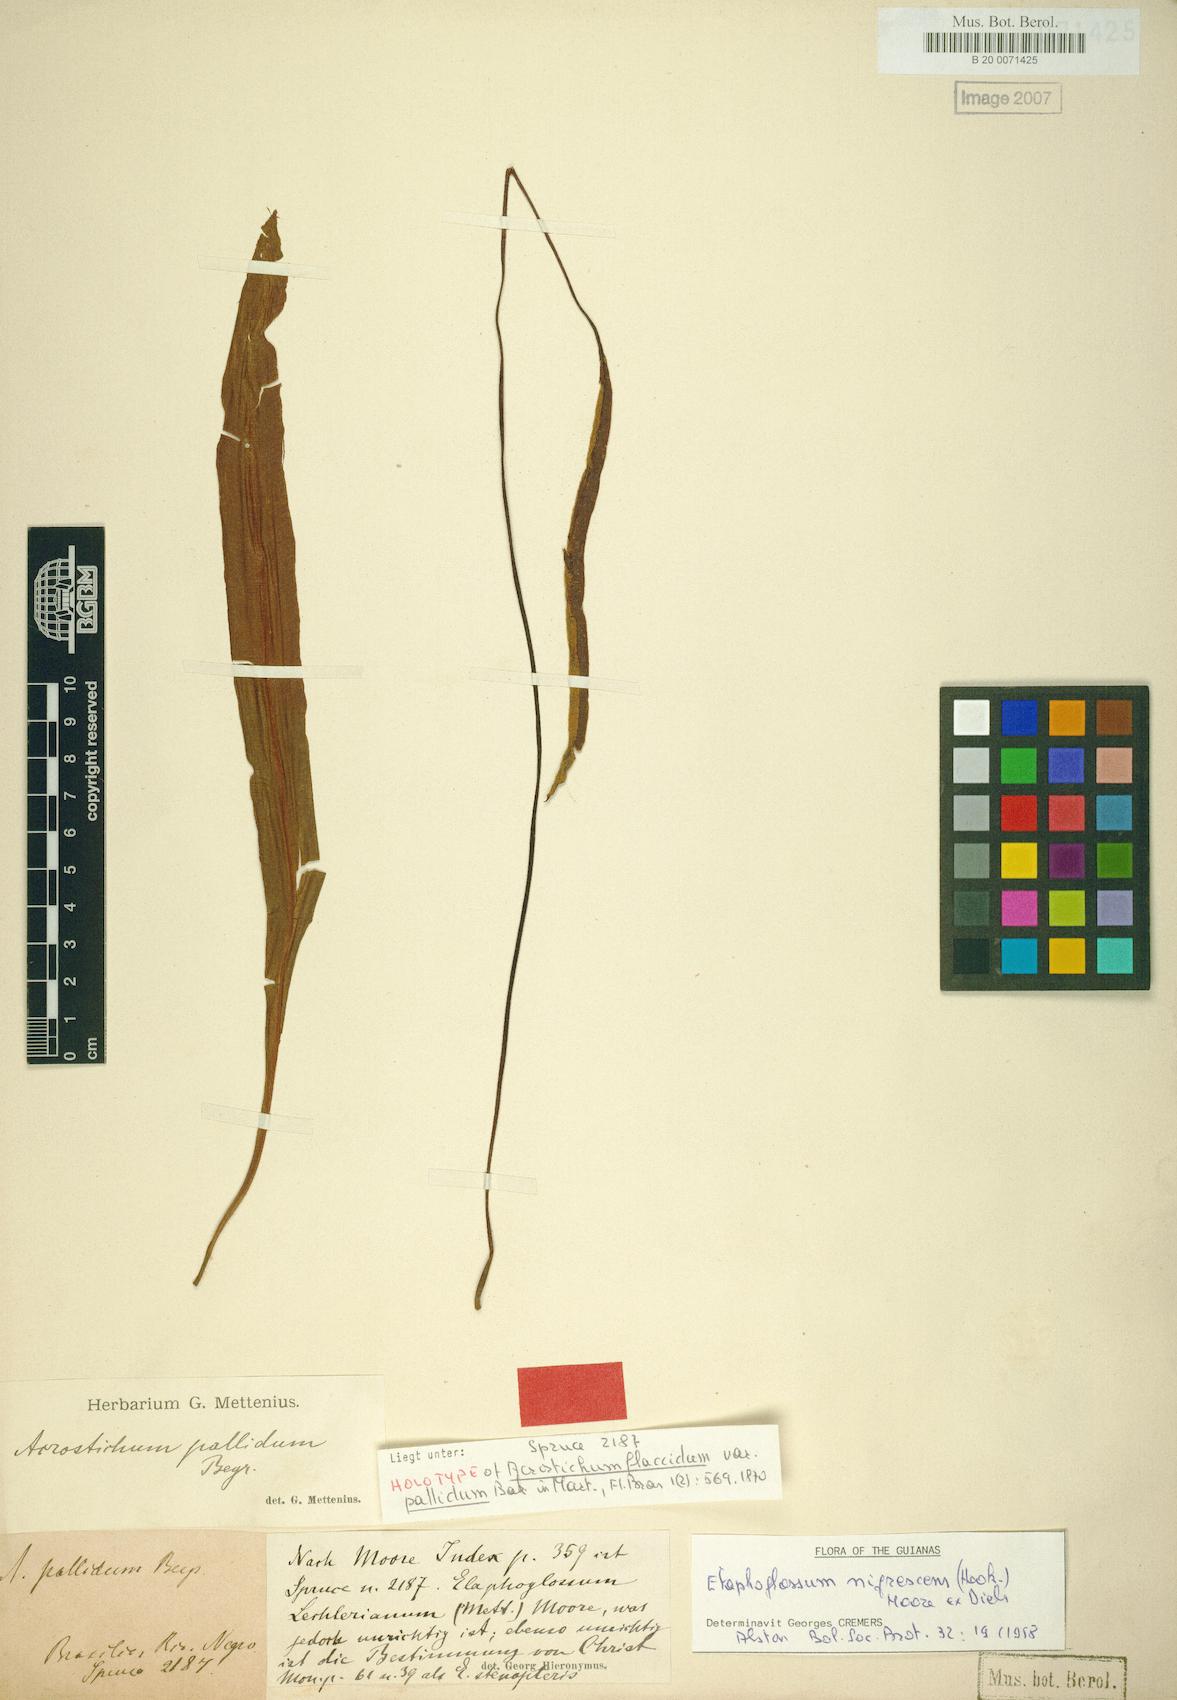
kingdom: Plantae
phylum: Tracheophyta
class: Polypodiopsida
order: Polypodiales
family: Dryopteridaceae
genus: Elaphoglossum
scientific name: Elaphoglossum nigrescens
